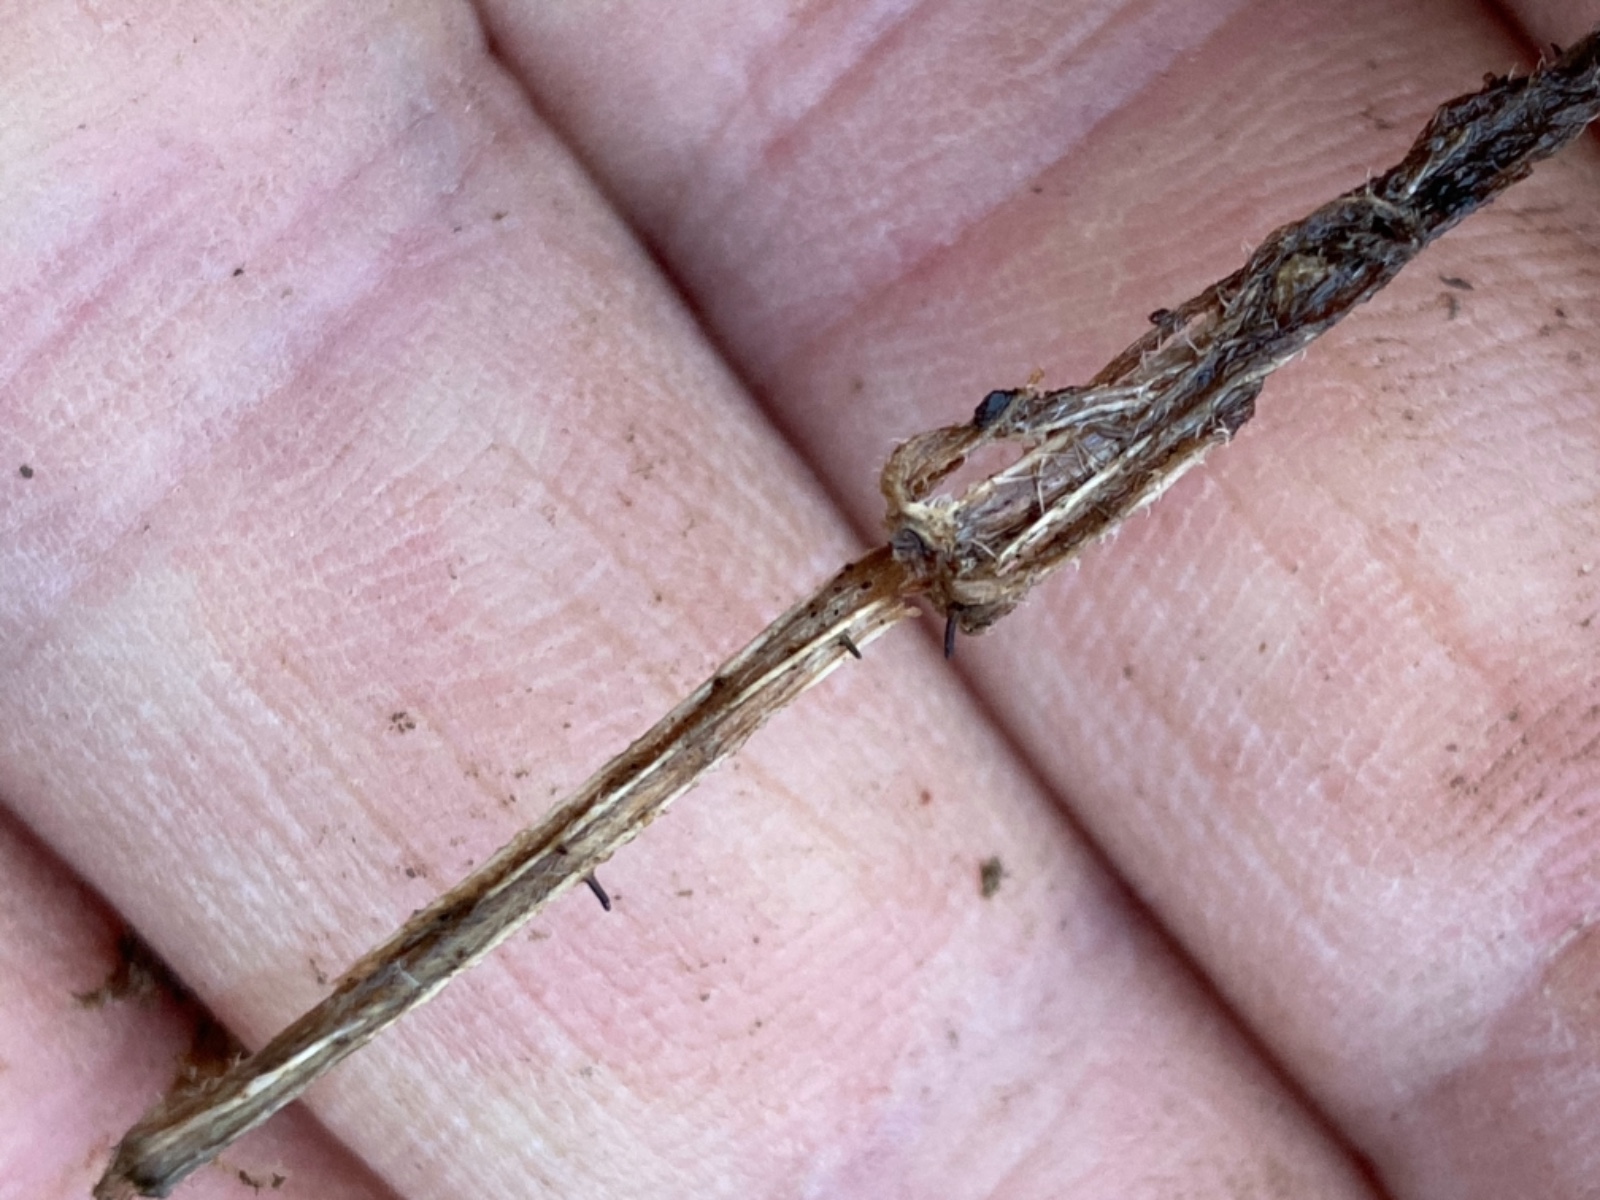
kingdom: Fungi
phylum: Ascomycota
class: Dothideomycetes
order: Acrospermales
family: Acrospermaceae
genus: Acrospermum
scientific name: Acrospermum pallidulum
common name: snerre-stængeltunge
